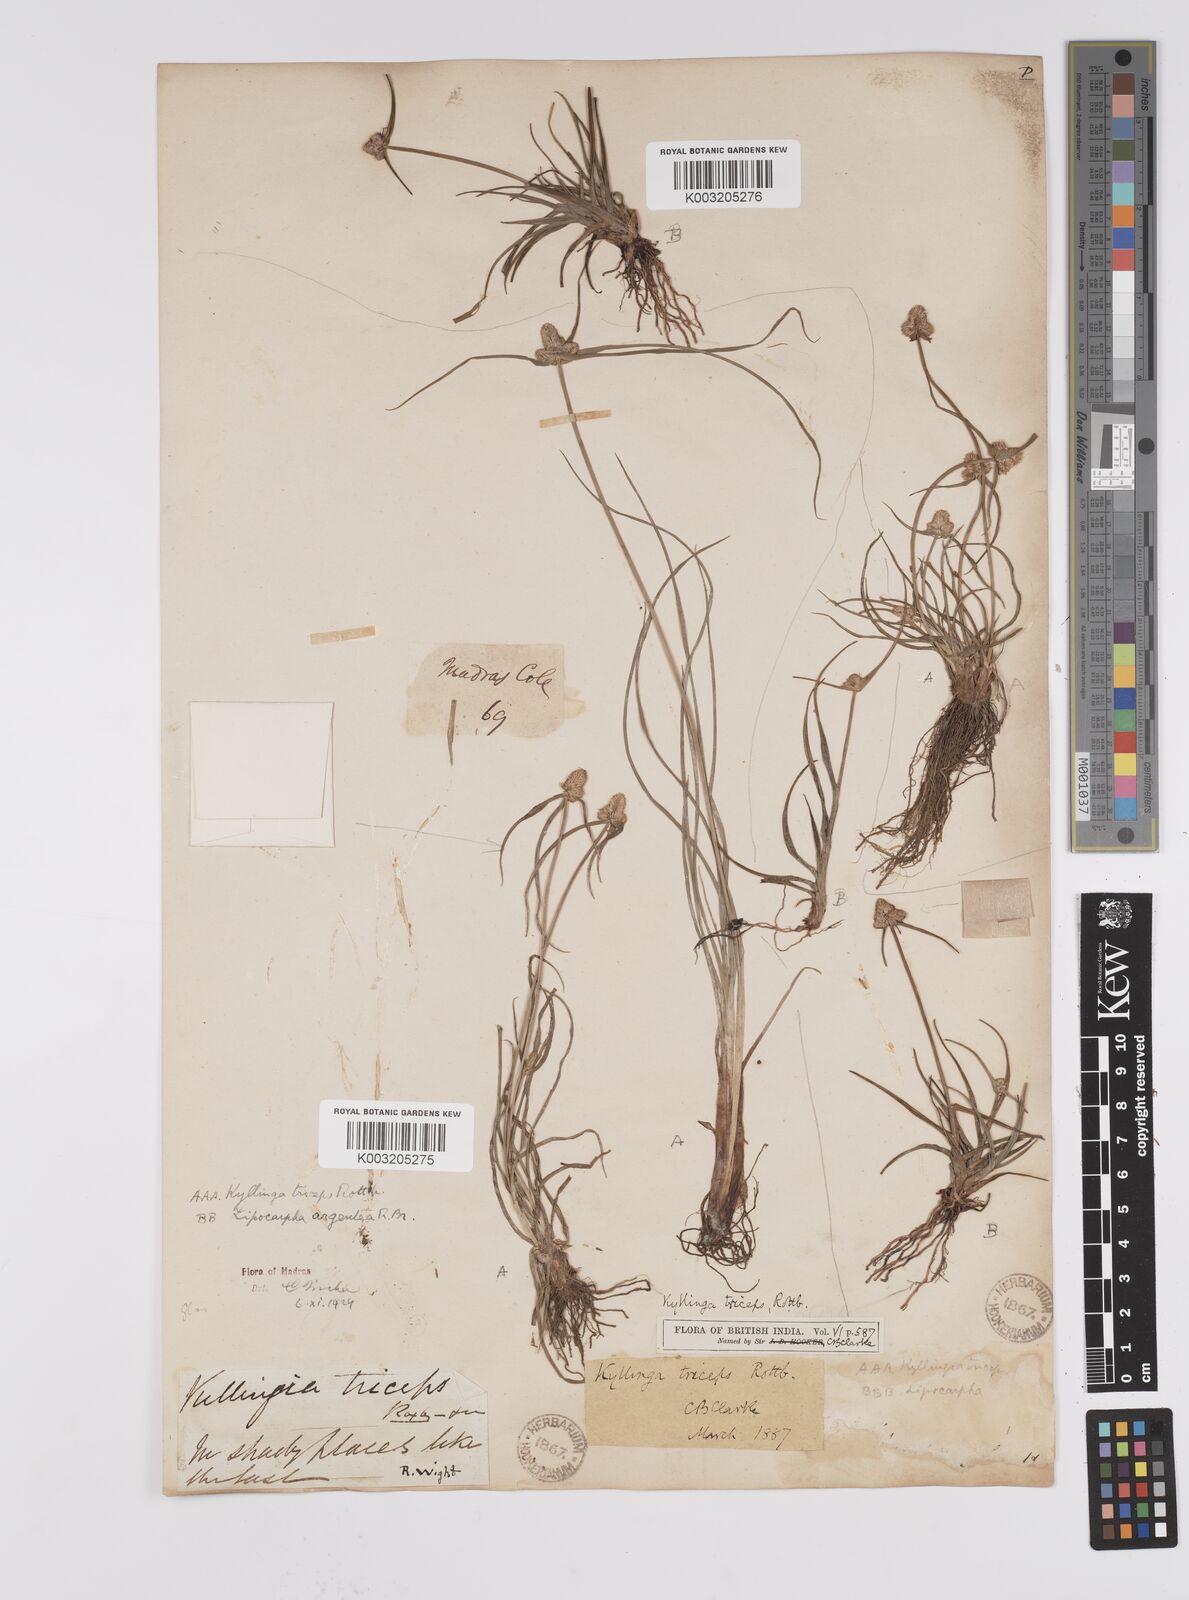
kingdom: Plantae
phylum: Tracheophyta
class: Liliopsida
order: Poales
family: Cyperaceae
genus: Cyperus
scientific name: Cyperus
